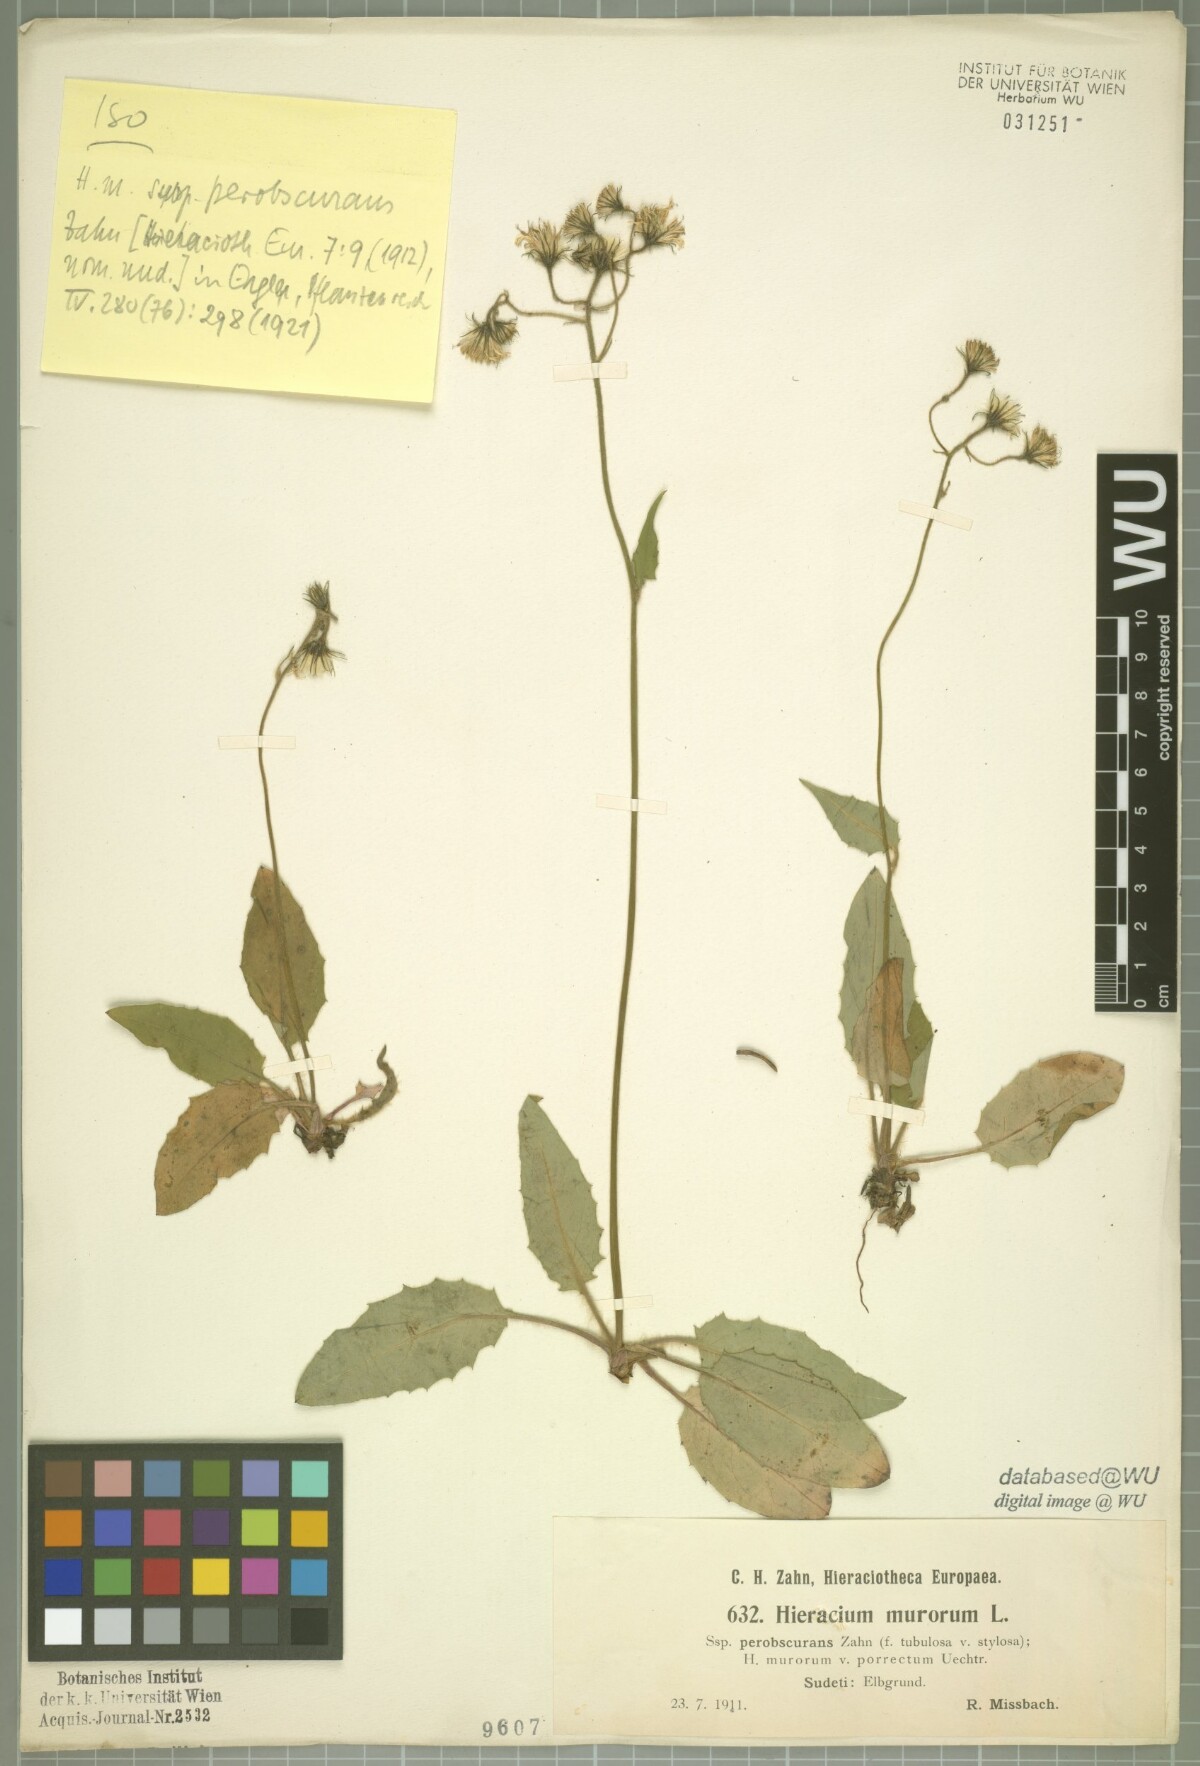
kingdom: Plantae
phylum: Tracheophyta
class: Magnoliopsida
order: Asterales
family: Asteraceae
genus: Hieracium
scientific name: Hieracium murorum
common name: Wall hawkweed
